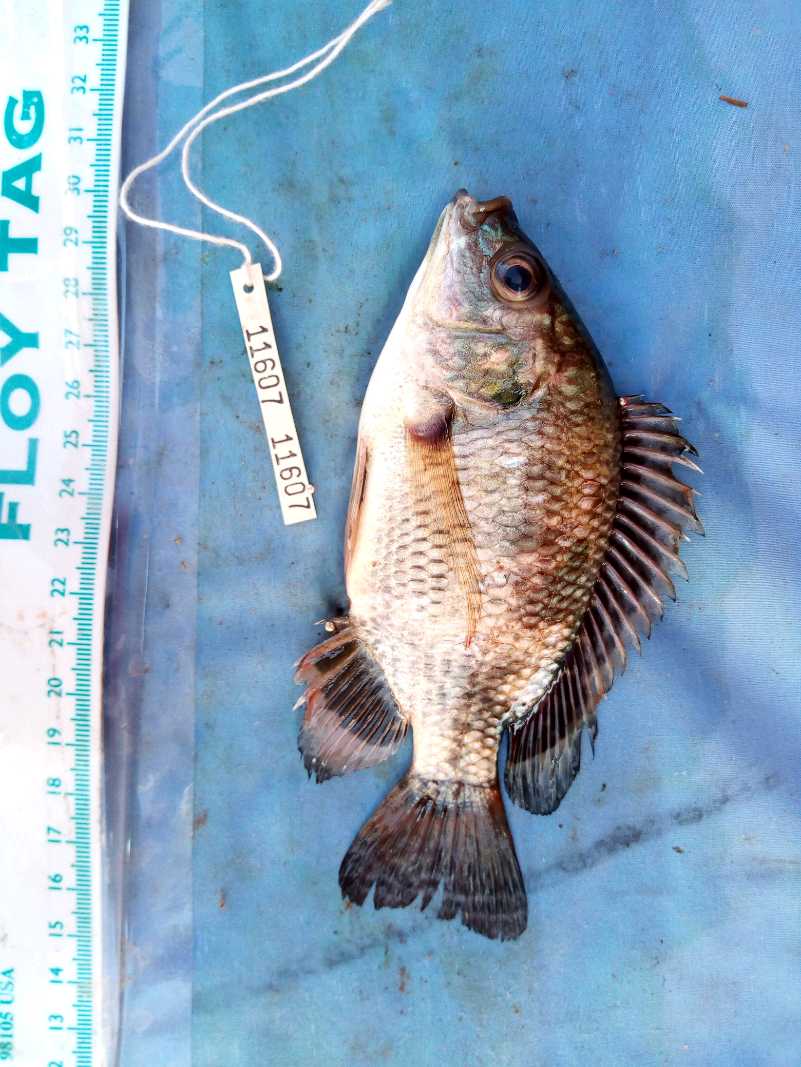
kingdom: Animalia
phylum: Chordata
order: Perciformes
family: Cichlidae
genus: Oreochromis
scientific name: Oreochromis niloticus
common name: Nile tilapia
